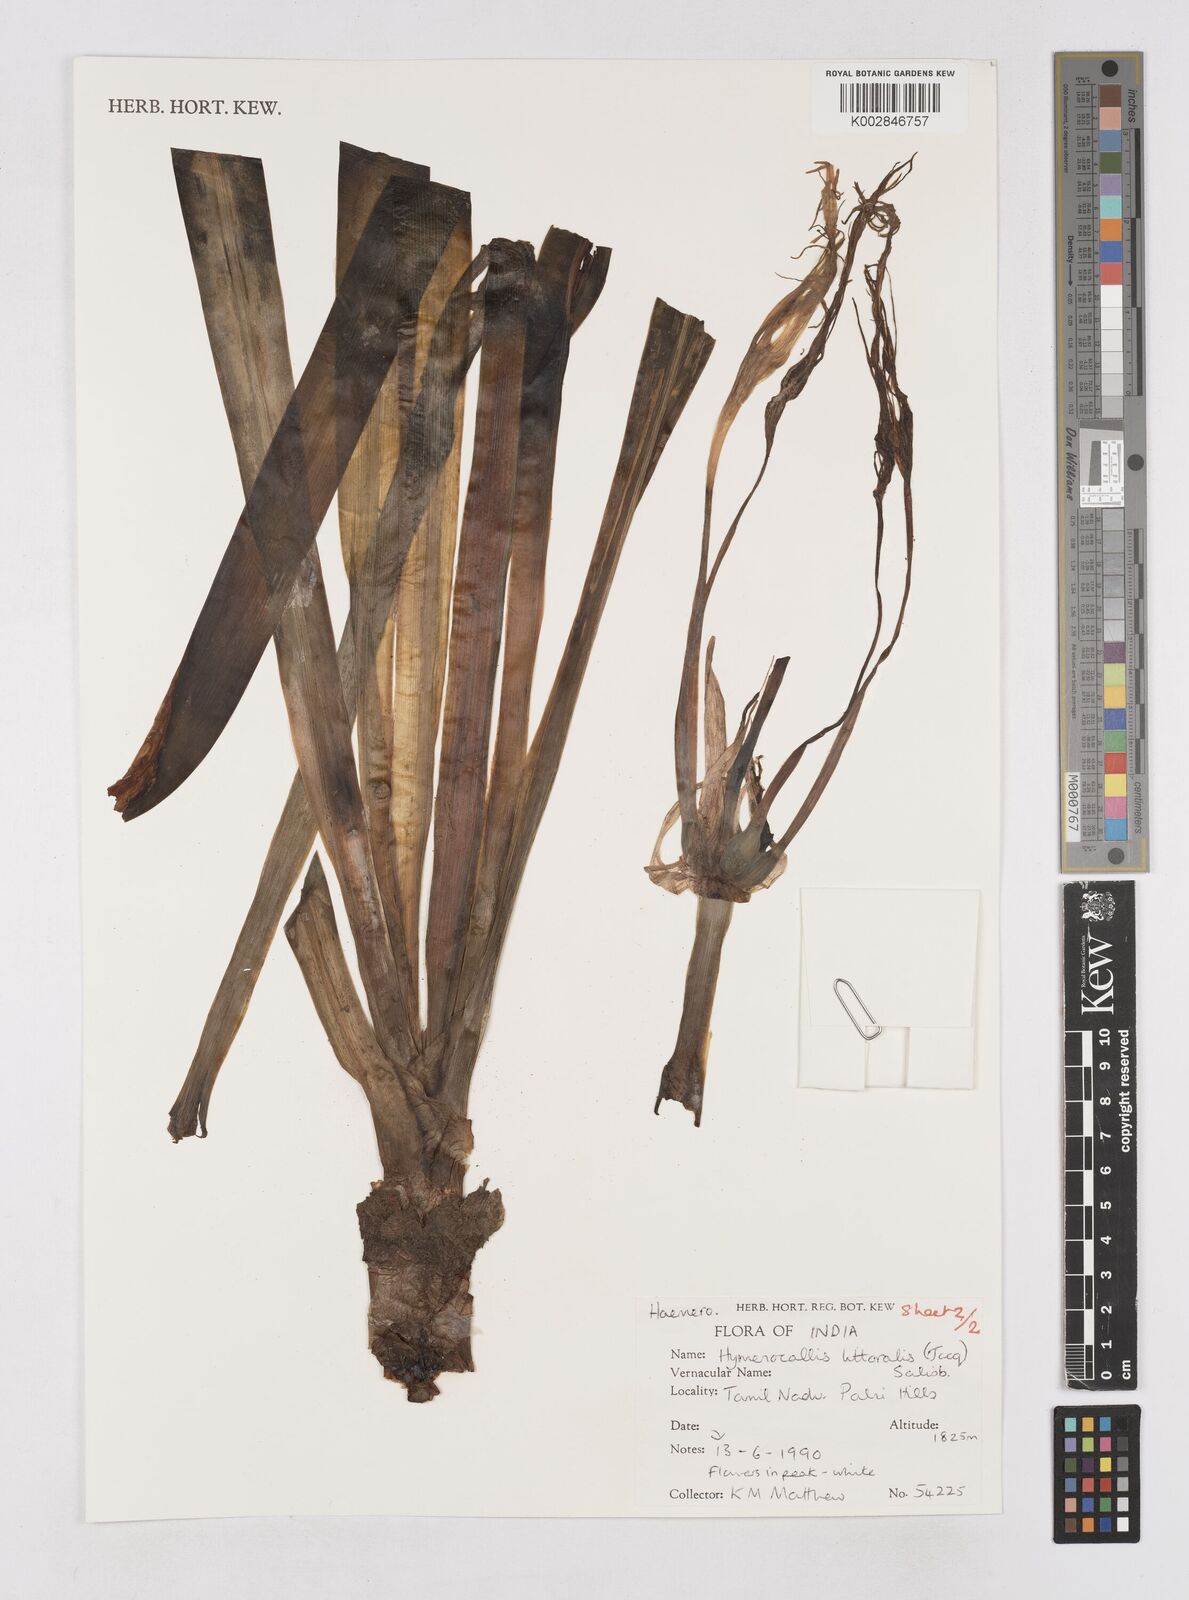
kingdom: Plantae
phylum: Tracheophyta
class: Liliopsida
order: Asparagales
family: Asphodelaceae
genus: Hemerocallis
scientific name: Hemerocallis
